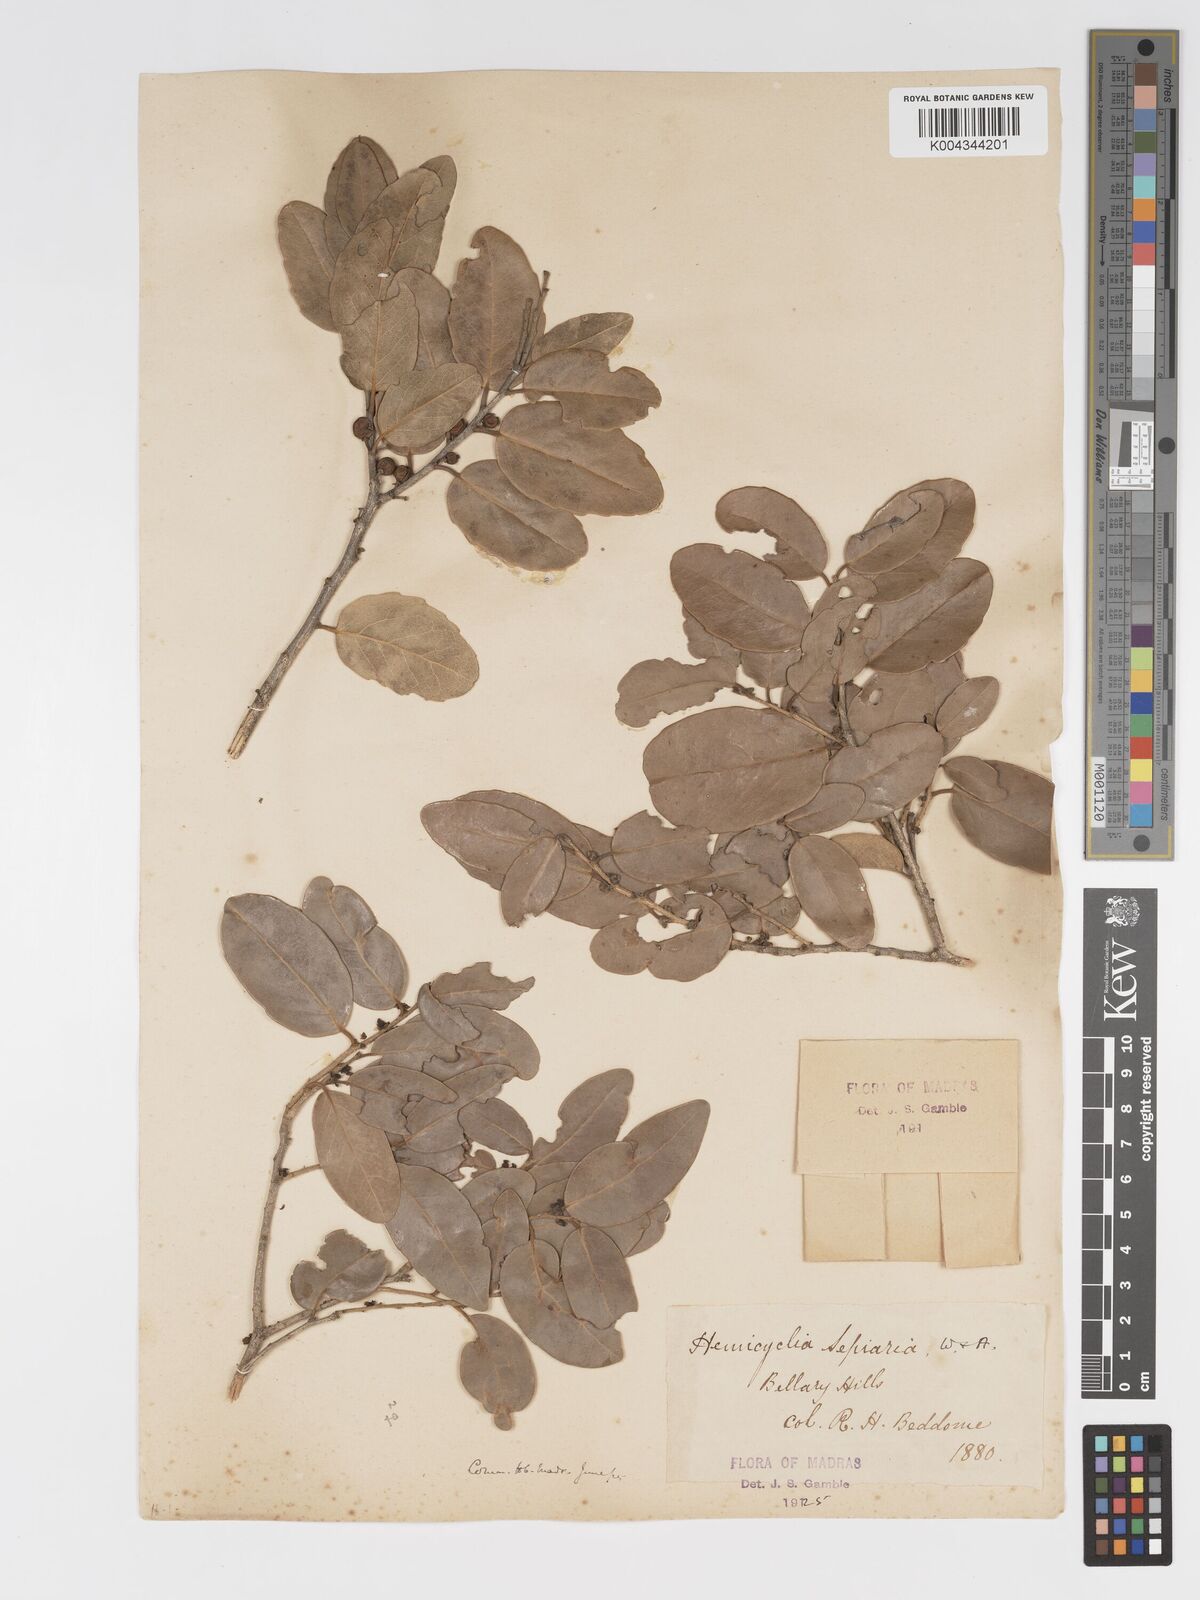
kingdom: Plantae
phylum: Tracheophyta
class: Magnoliopsida
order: Malpighiales
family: Putranjivaceae
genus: Drypetes
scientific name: Drypetes sepiaria
